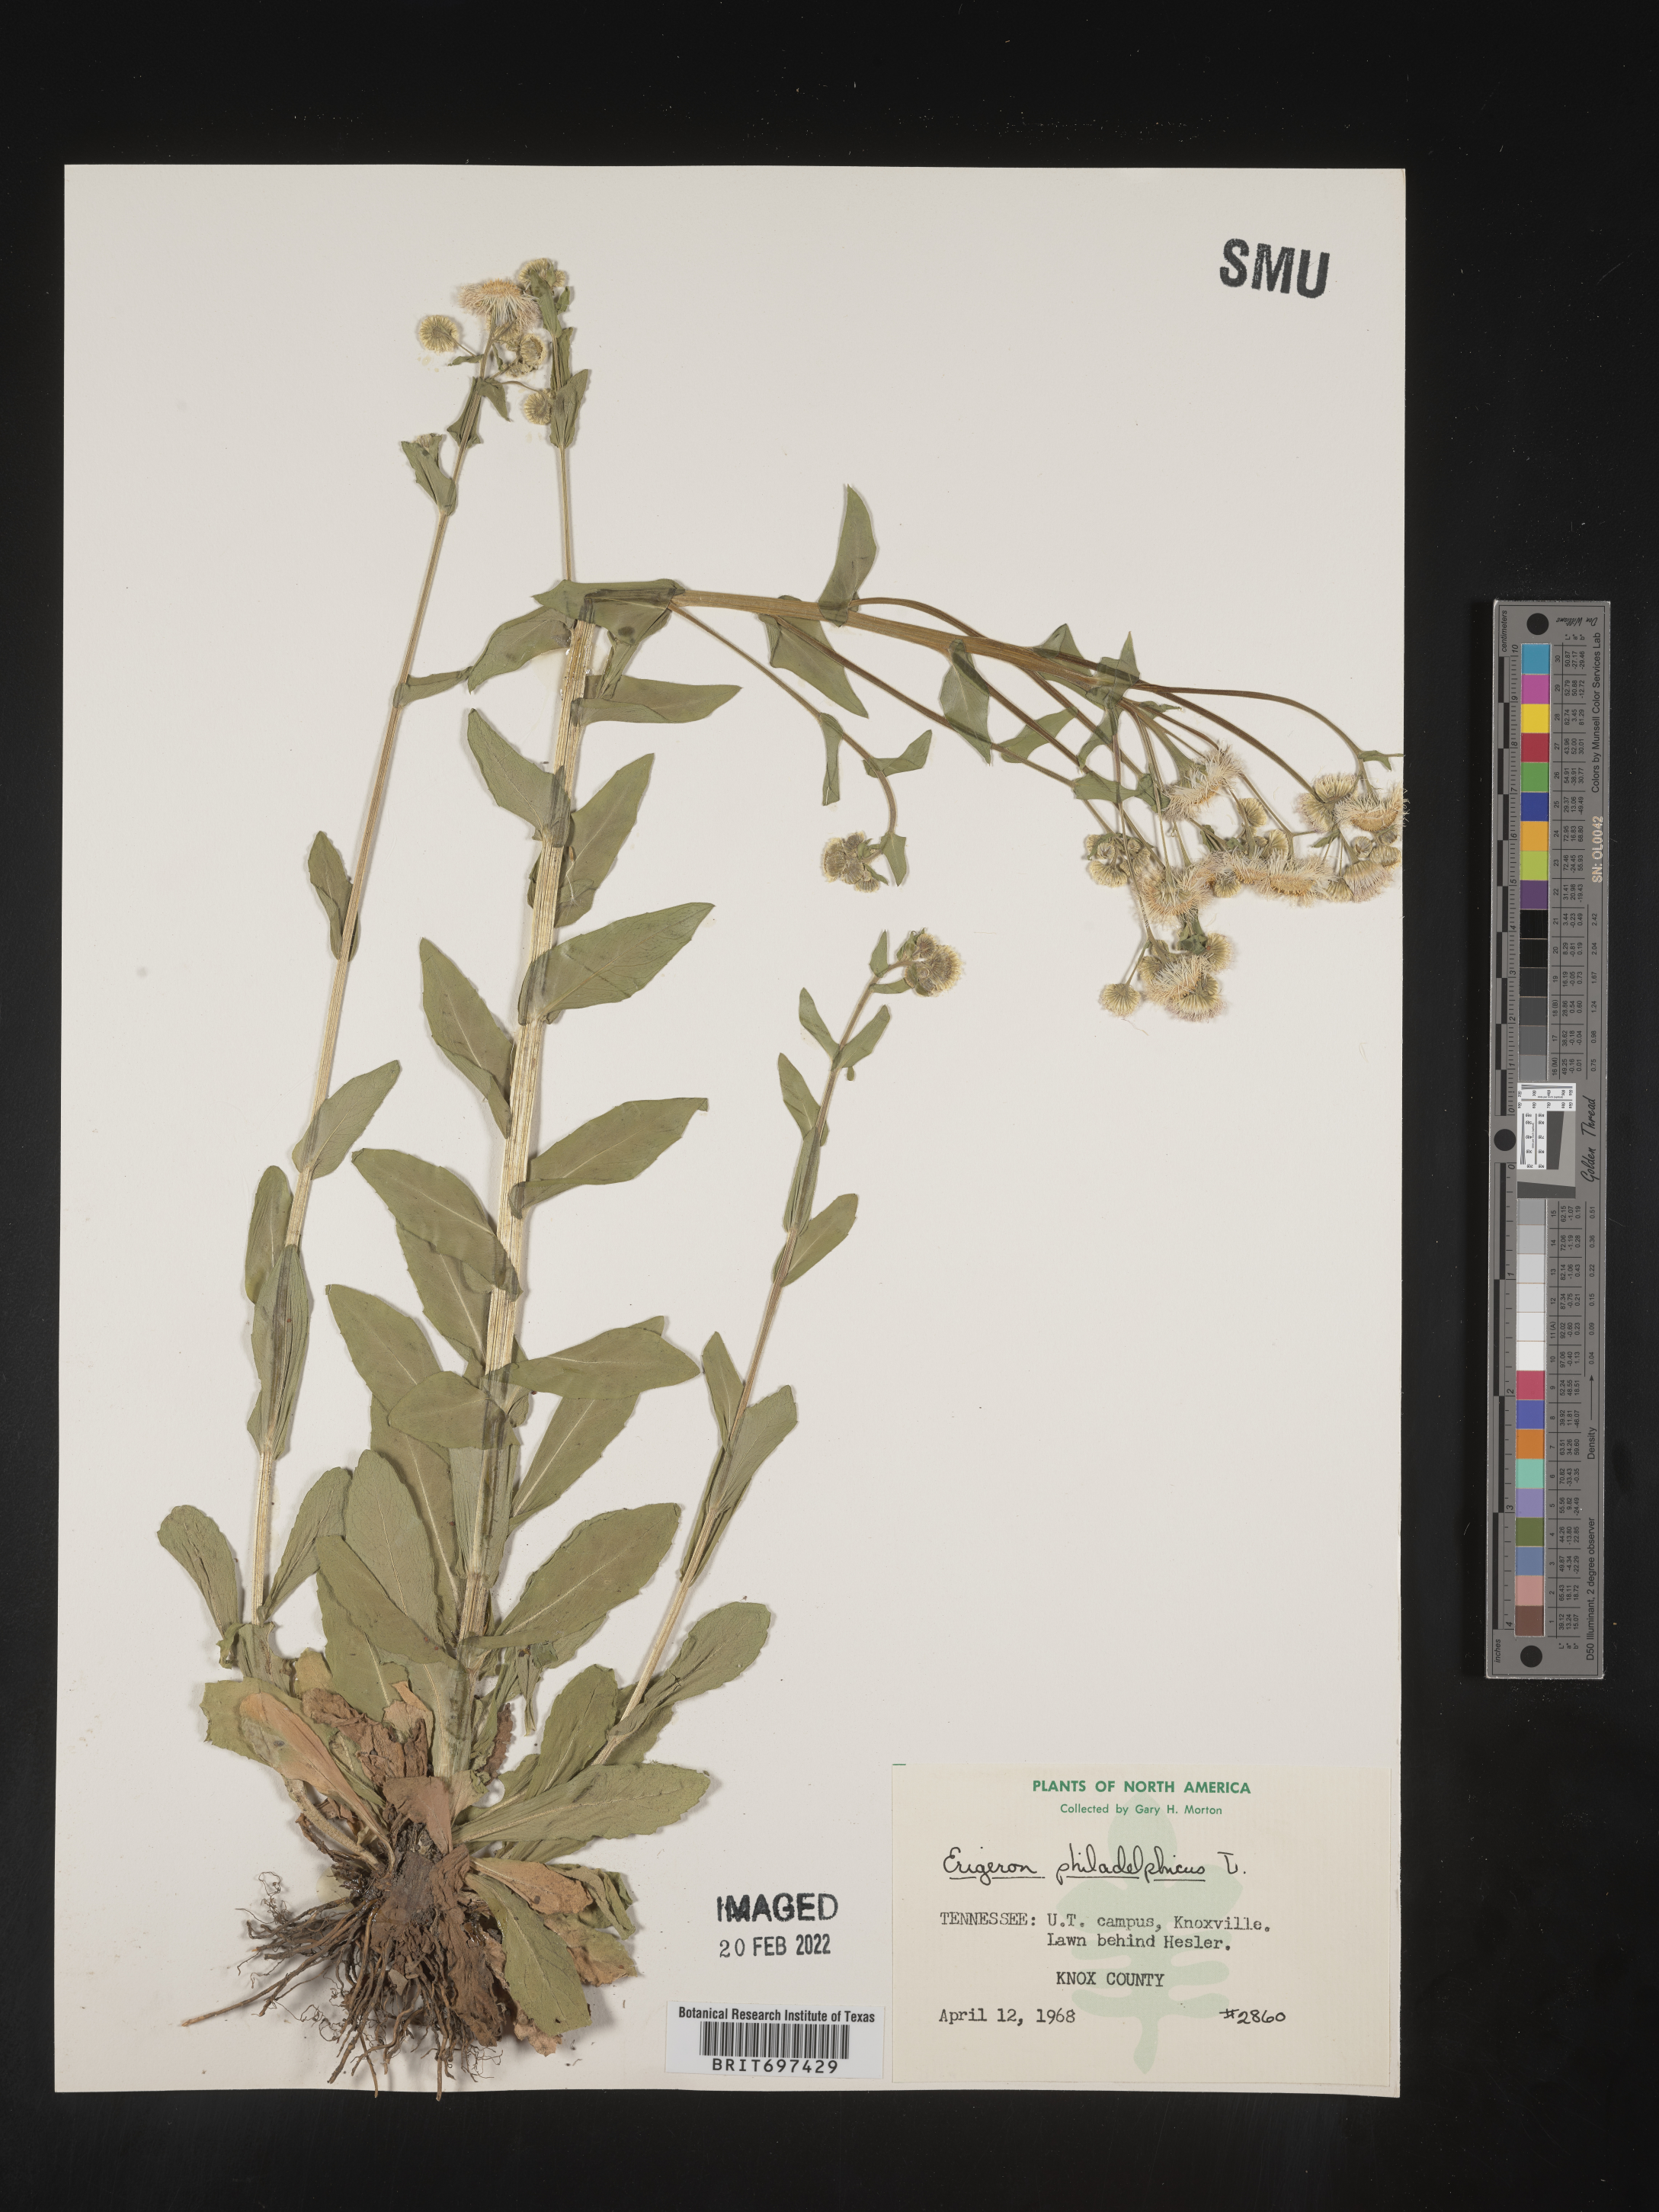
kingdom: Plantae
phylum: Tracheophyta
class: Magnoliopsida
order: Asterales
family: Asteraceae
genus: Erigeron
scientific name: Erigeron philadelphicus
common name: Robin's-plantain
